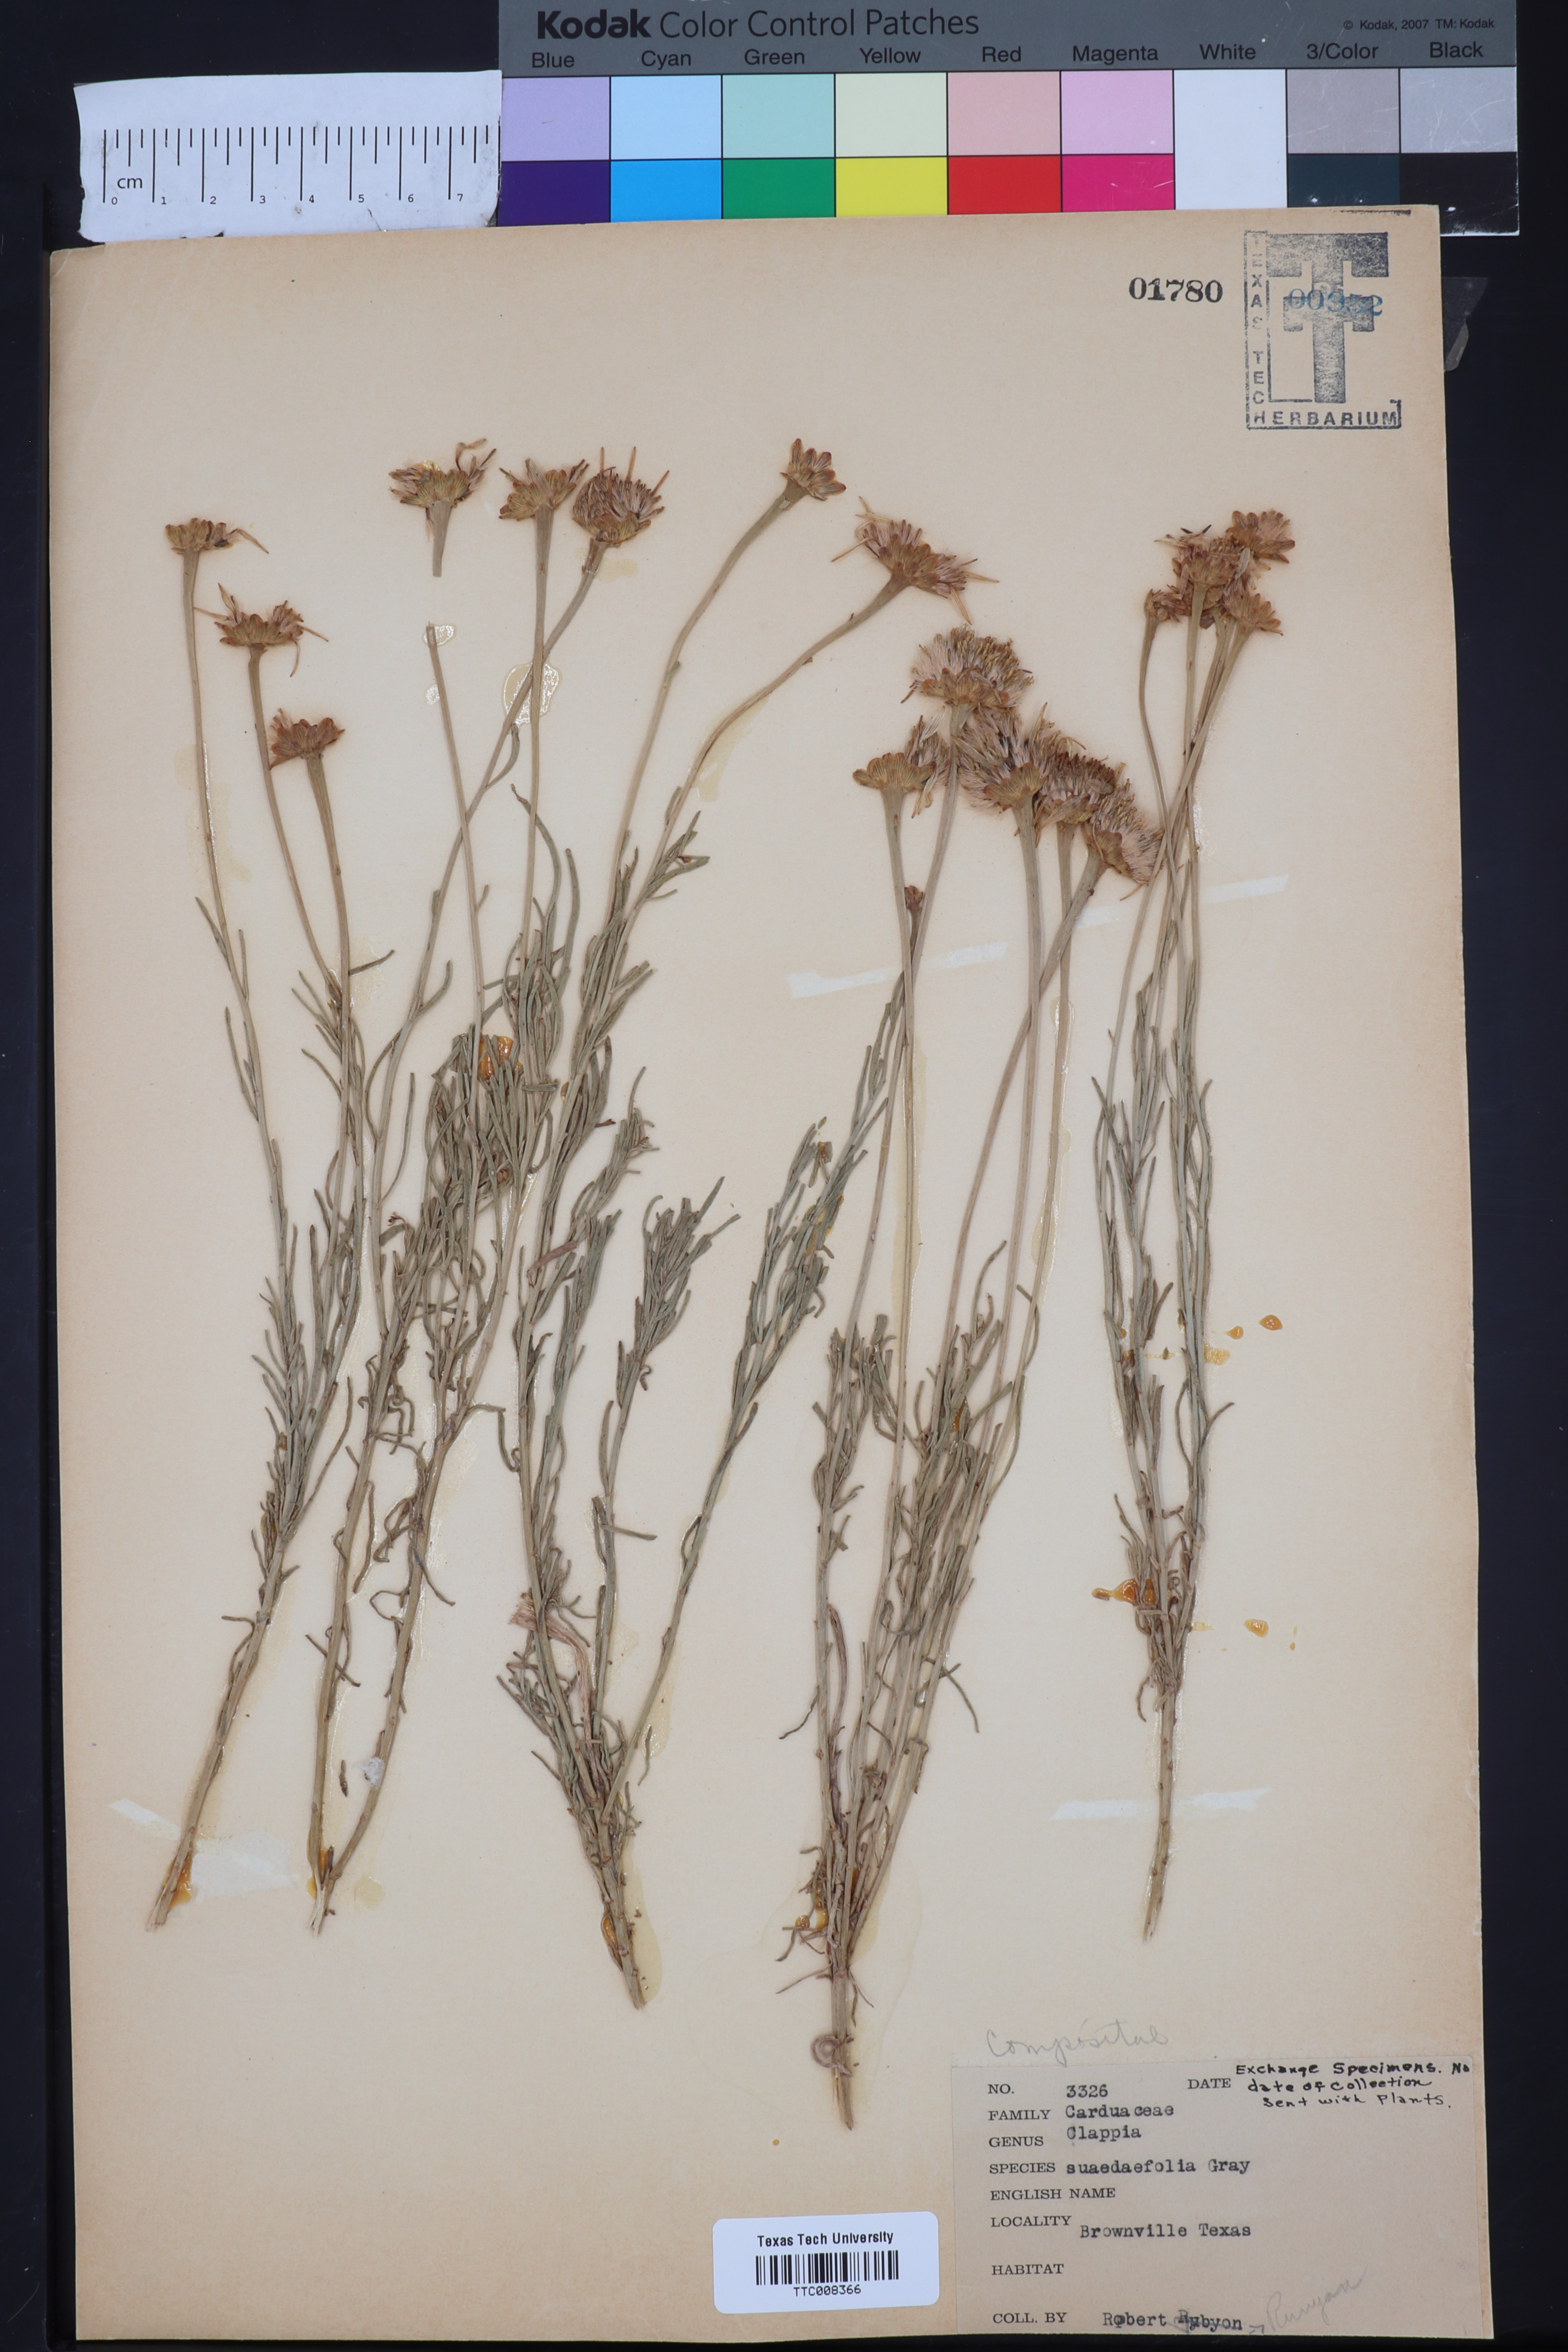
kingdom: Plantae
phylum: Tracheophyta
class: Magnoliopsida
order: Asterales
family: Asteraceae
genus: Clappia
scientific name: Clappia suaedaefolia
